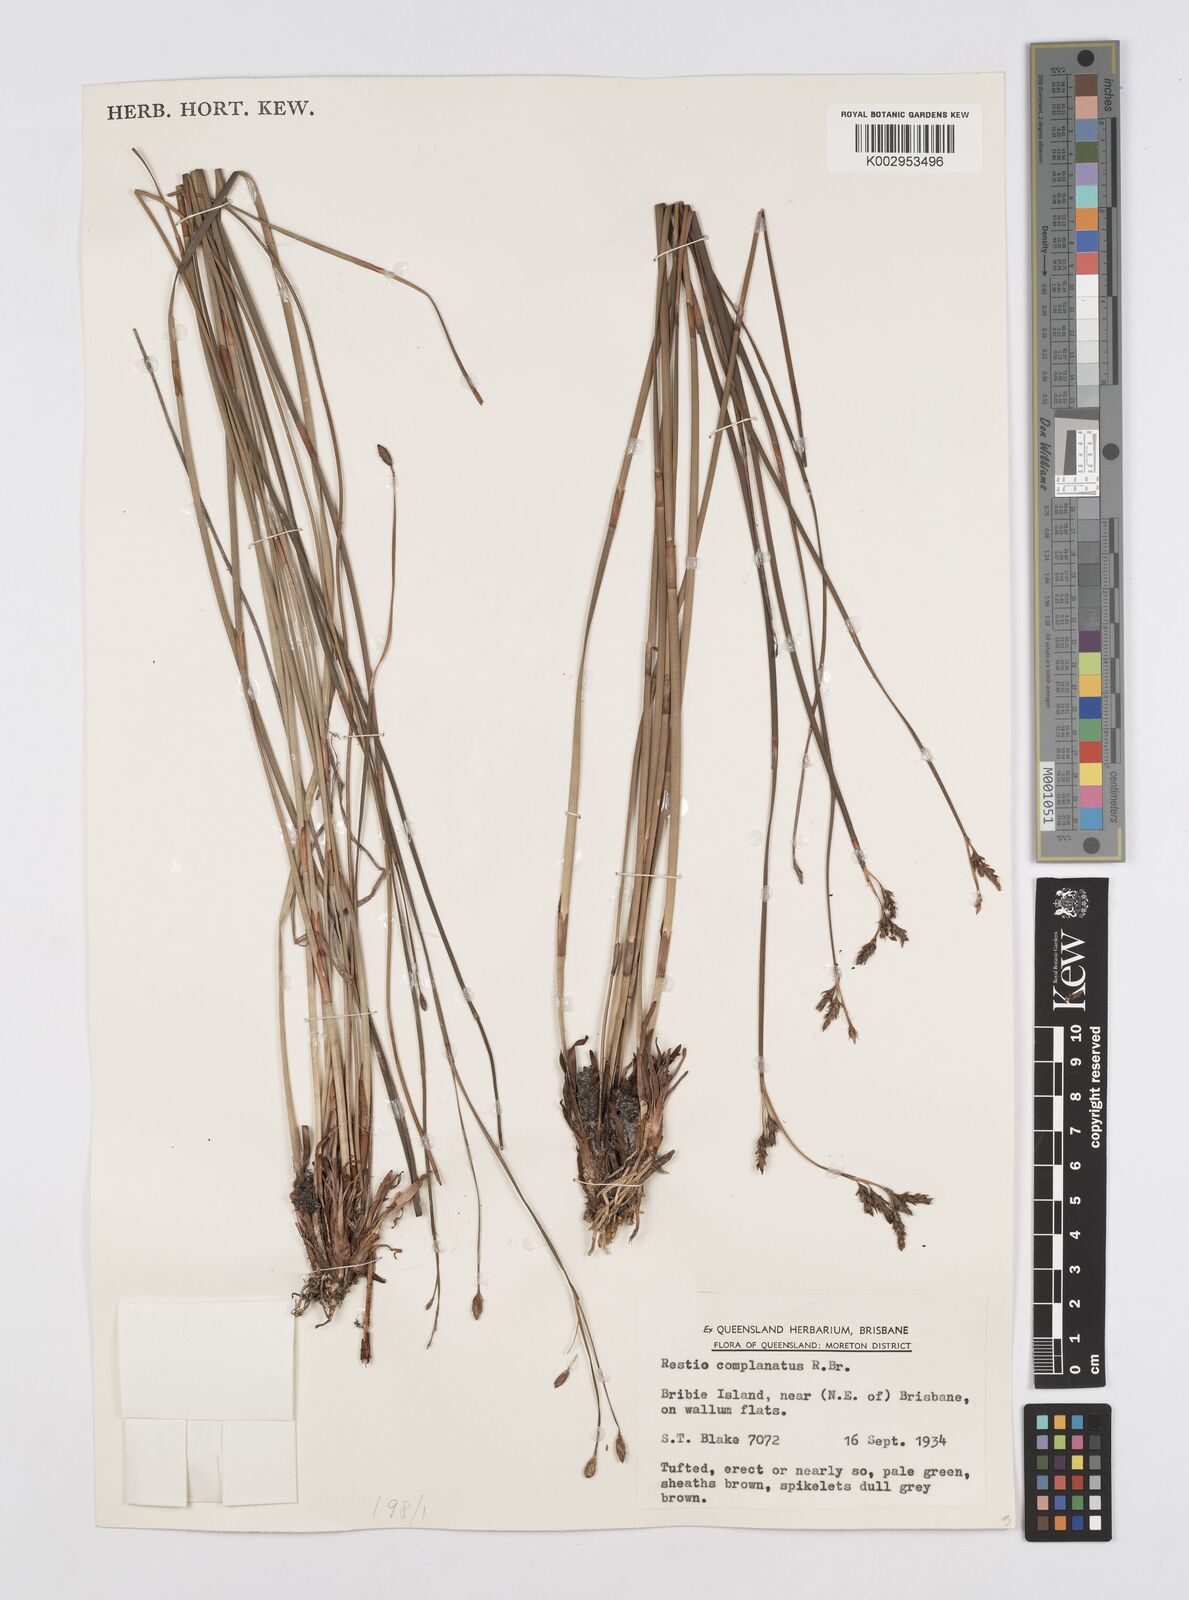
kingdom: Plantae
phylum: Tracheophyta
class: Liliopsida
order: Poales
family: Restionaceae
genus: Eurychorda
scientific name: Eurychorda complanata
